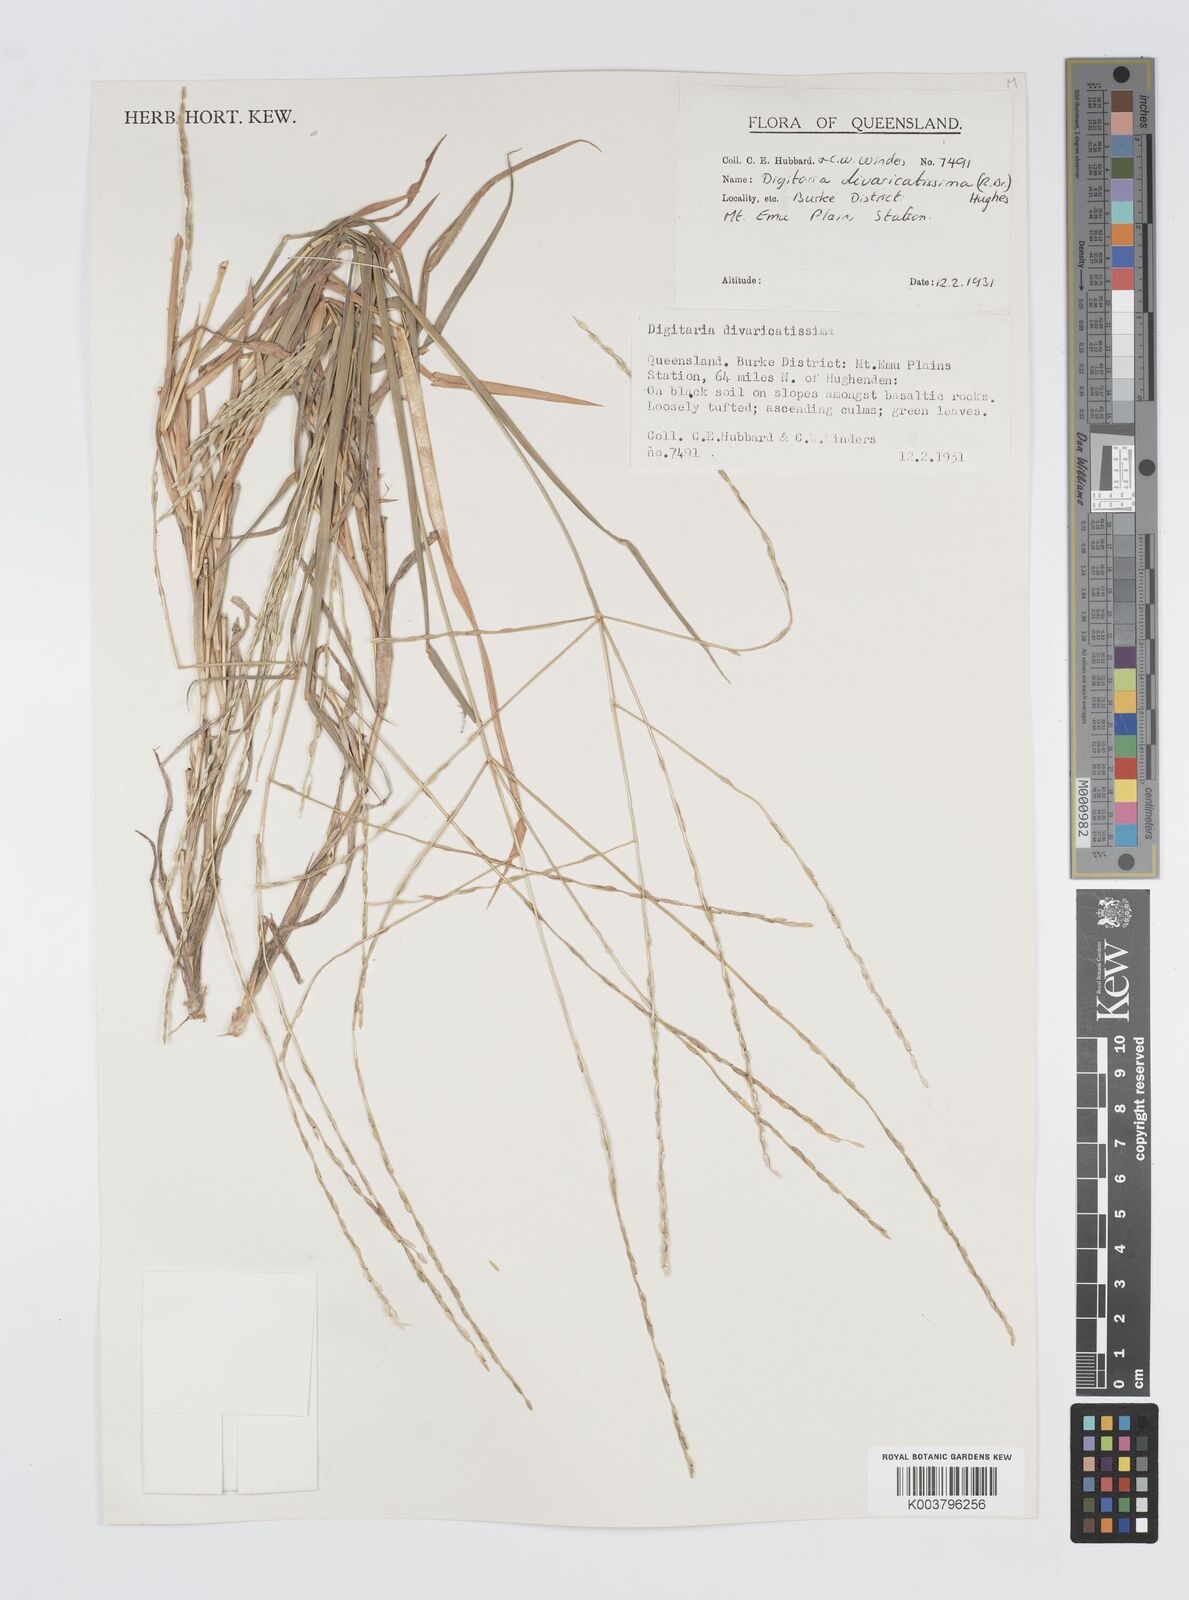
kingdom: Plantae
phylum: Tracheophyta
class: Liliopsida
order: Poales
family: Poaceae
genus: Digitaria
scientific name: Digitaria divaricatissima
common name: Crabgrass
